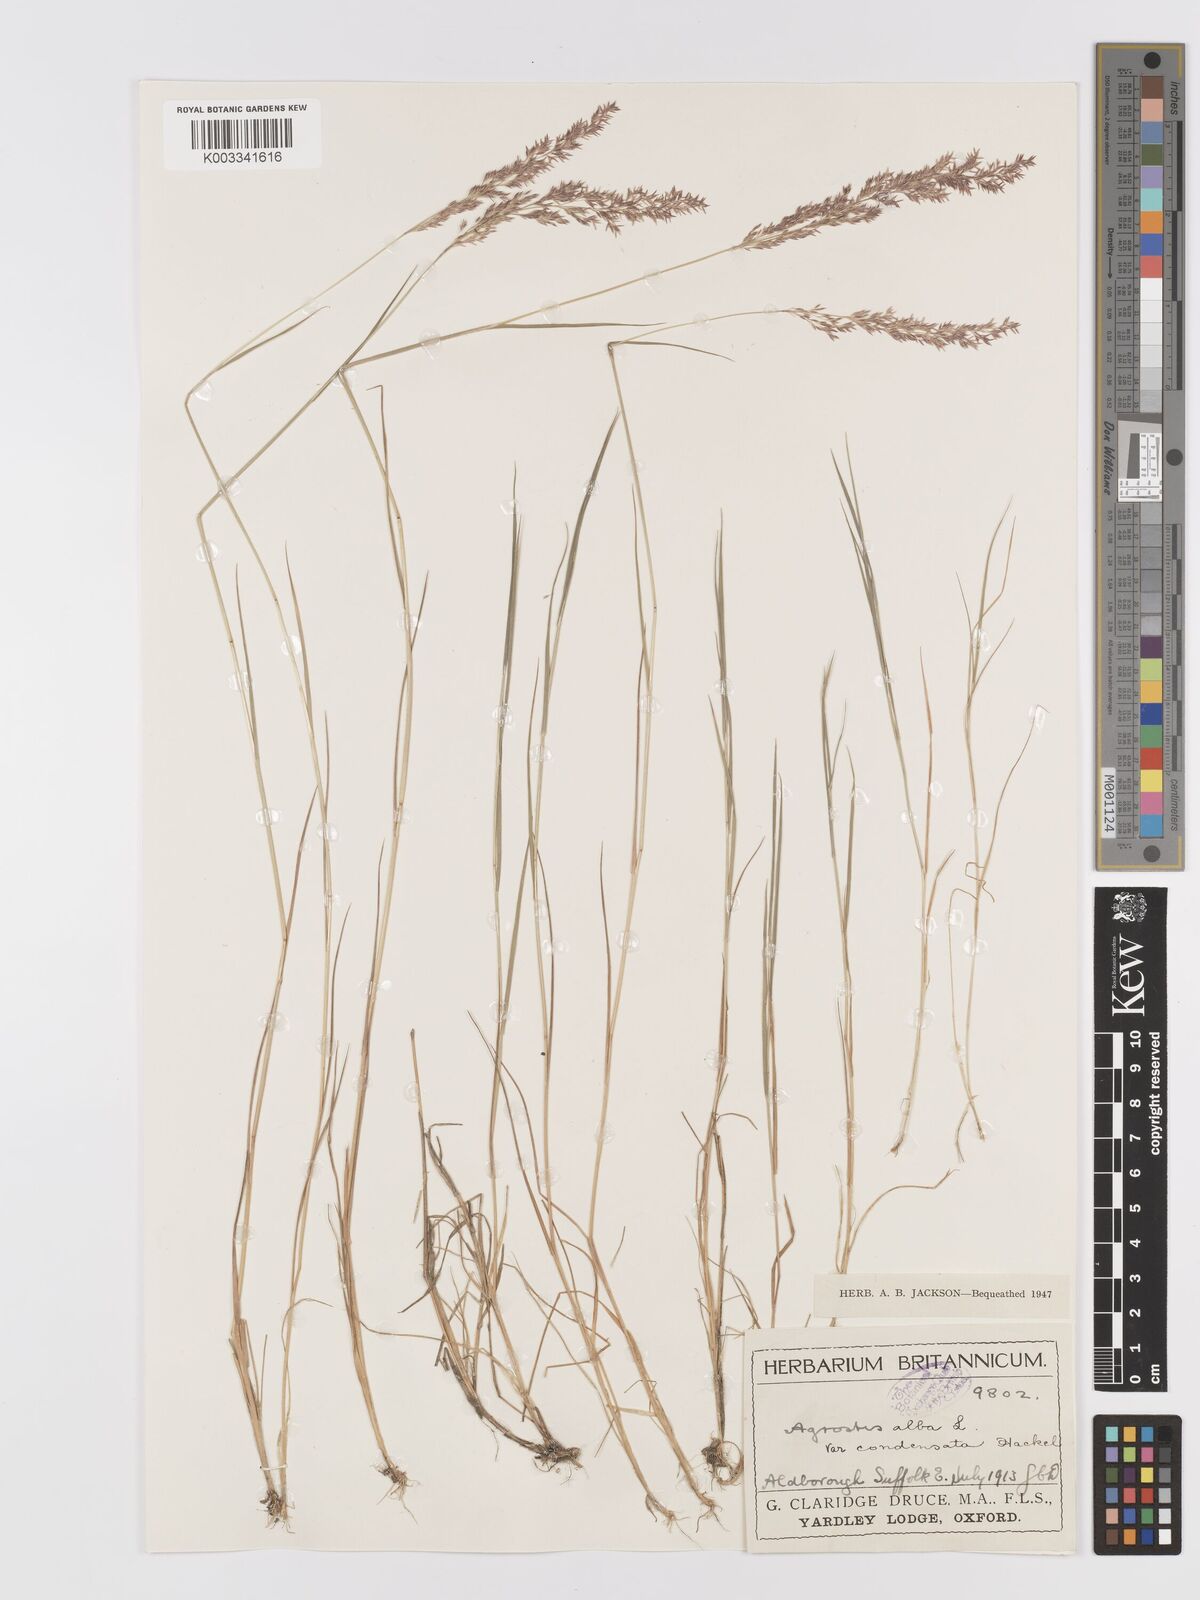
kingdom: Plantae
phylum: Tracheophyta
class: Liliopsida
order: Poales
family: Poaceae
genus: Agrostis
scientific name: Agrostis stolonifera
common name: Creeping bentgrass
